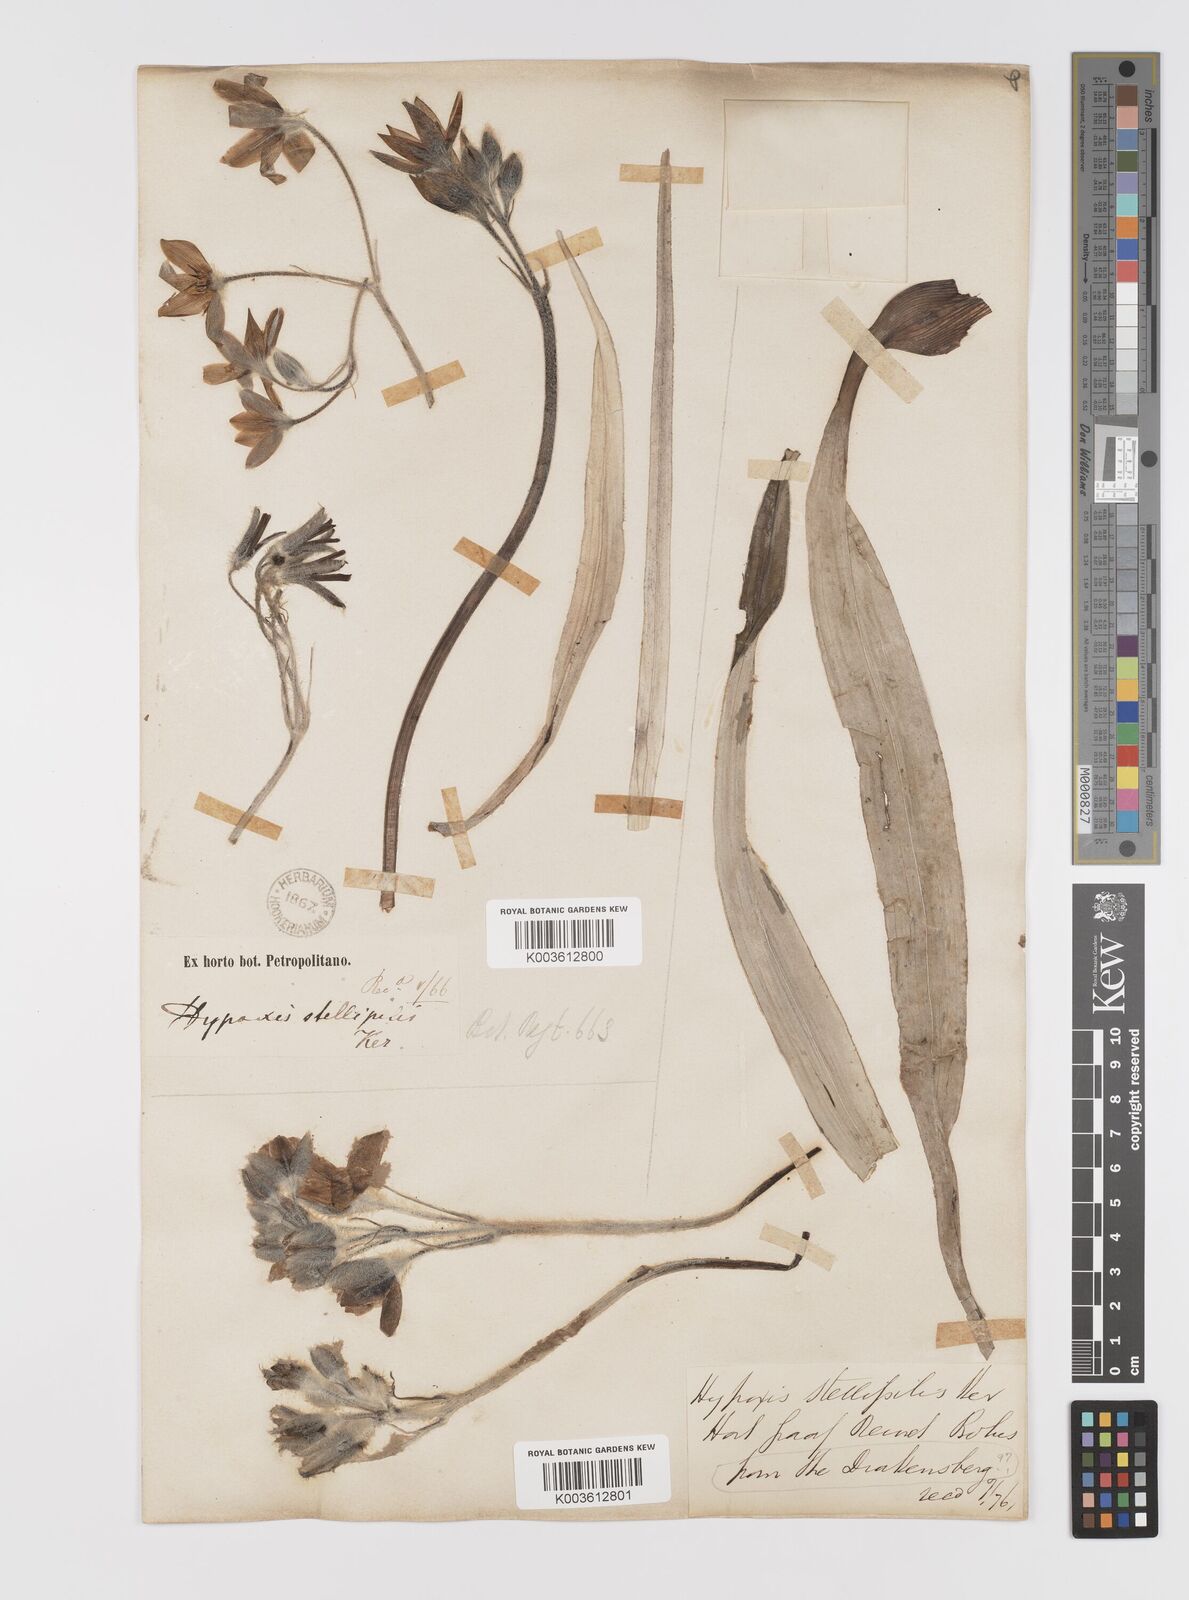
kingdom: Plantae
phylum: Tracheophyta
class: Liliopsida
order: Asparagales
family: Hypoxidaceae
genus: Hypoxis
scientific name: Hypoxis stellipilis
